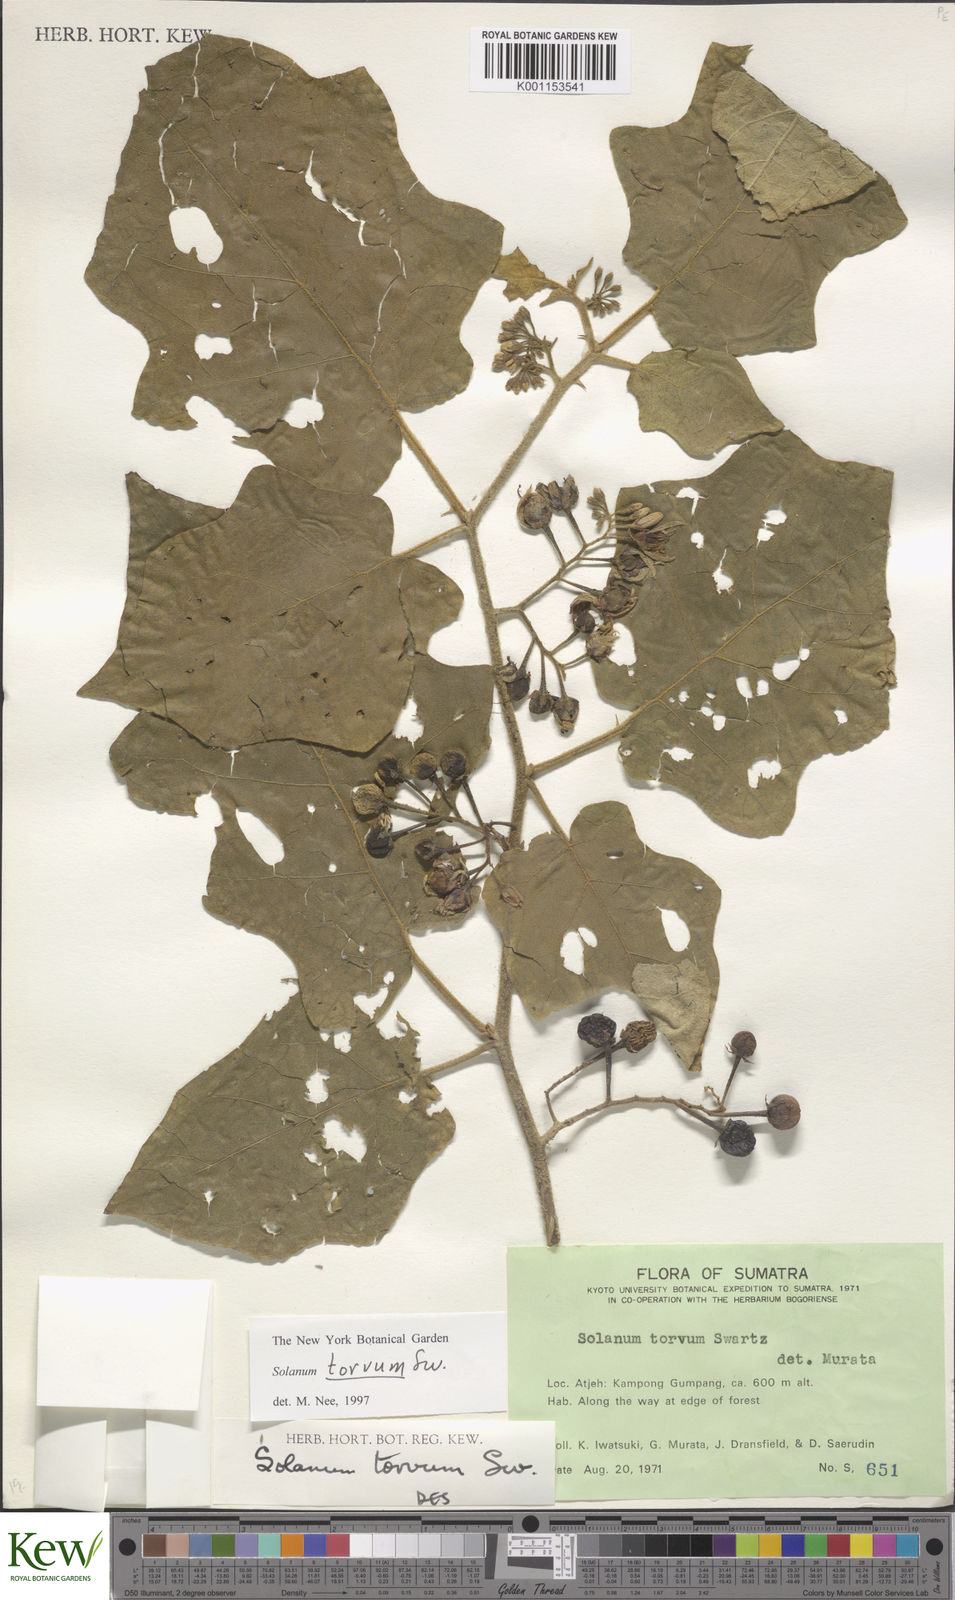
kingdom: Plantae
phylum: Tracheophyta
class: Magnoliopsida
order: Solanales
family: Solanaceae
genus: Solanum
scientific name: Solanum torvum
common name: Turkey berry
